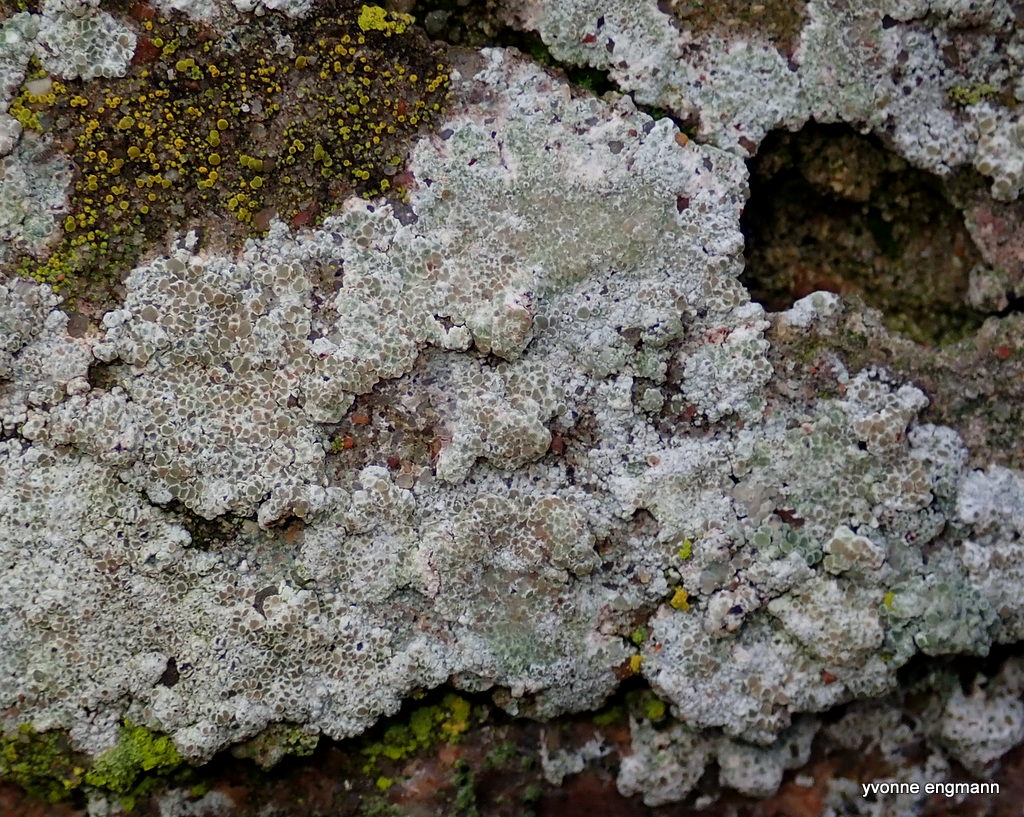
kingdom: Fungi
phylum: Ascomycota
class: Lecanoromycetes
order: Lecanorales
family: Lecanoraceae
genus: Polyozosia
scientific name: Polyozosia albescens
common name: cement-kantskivelav
